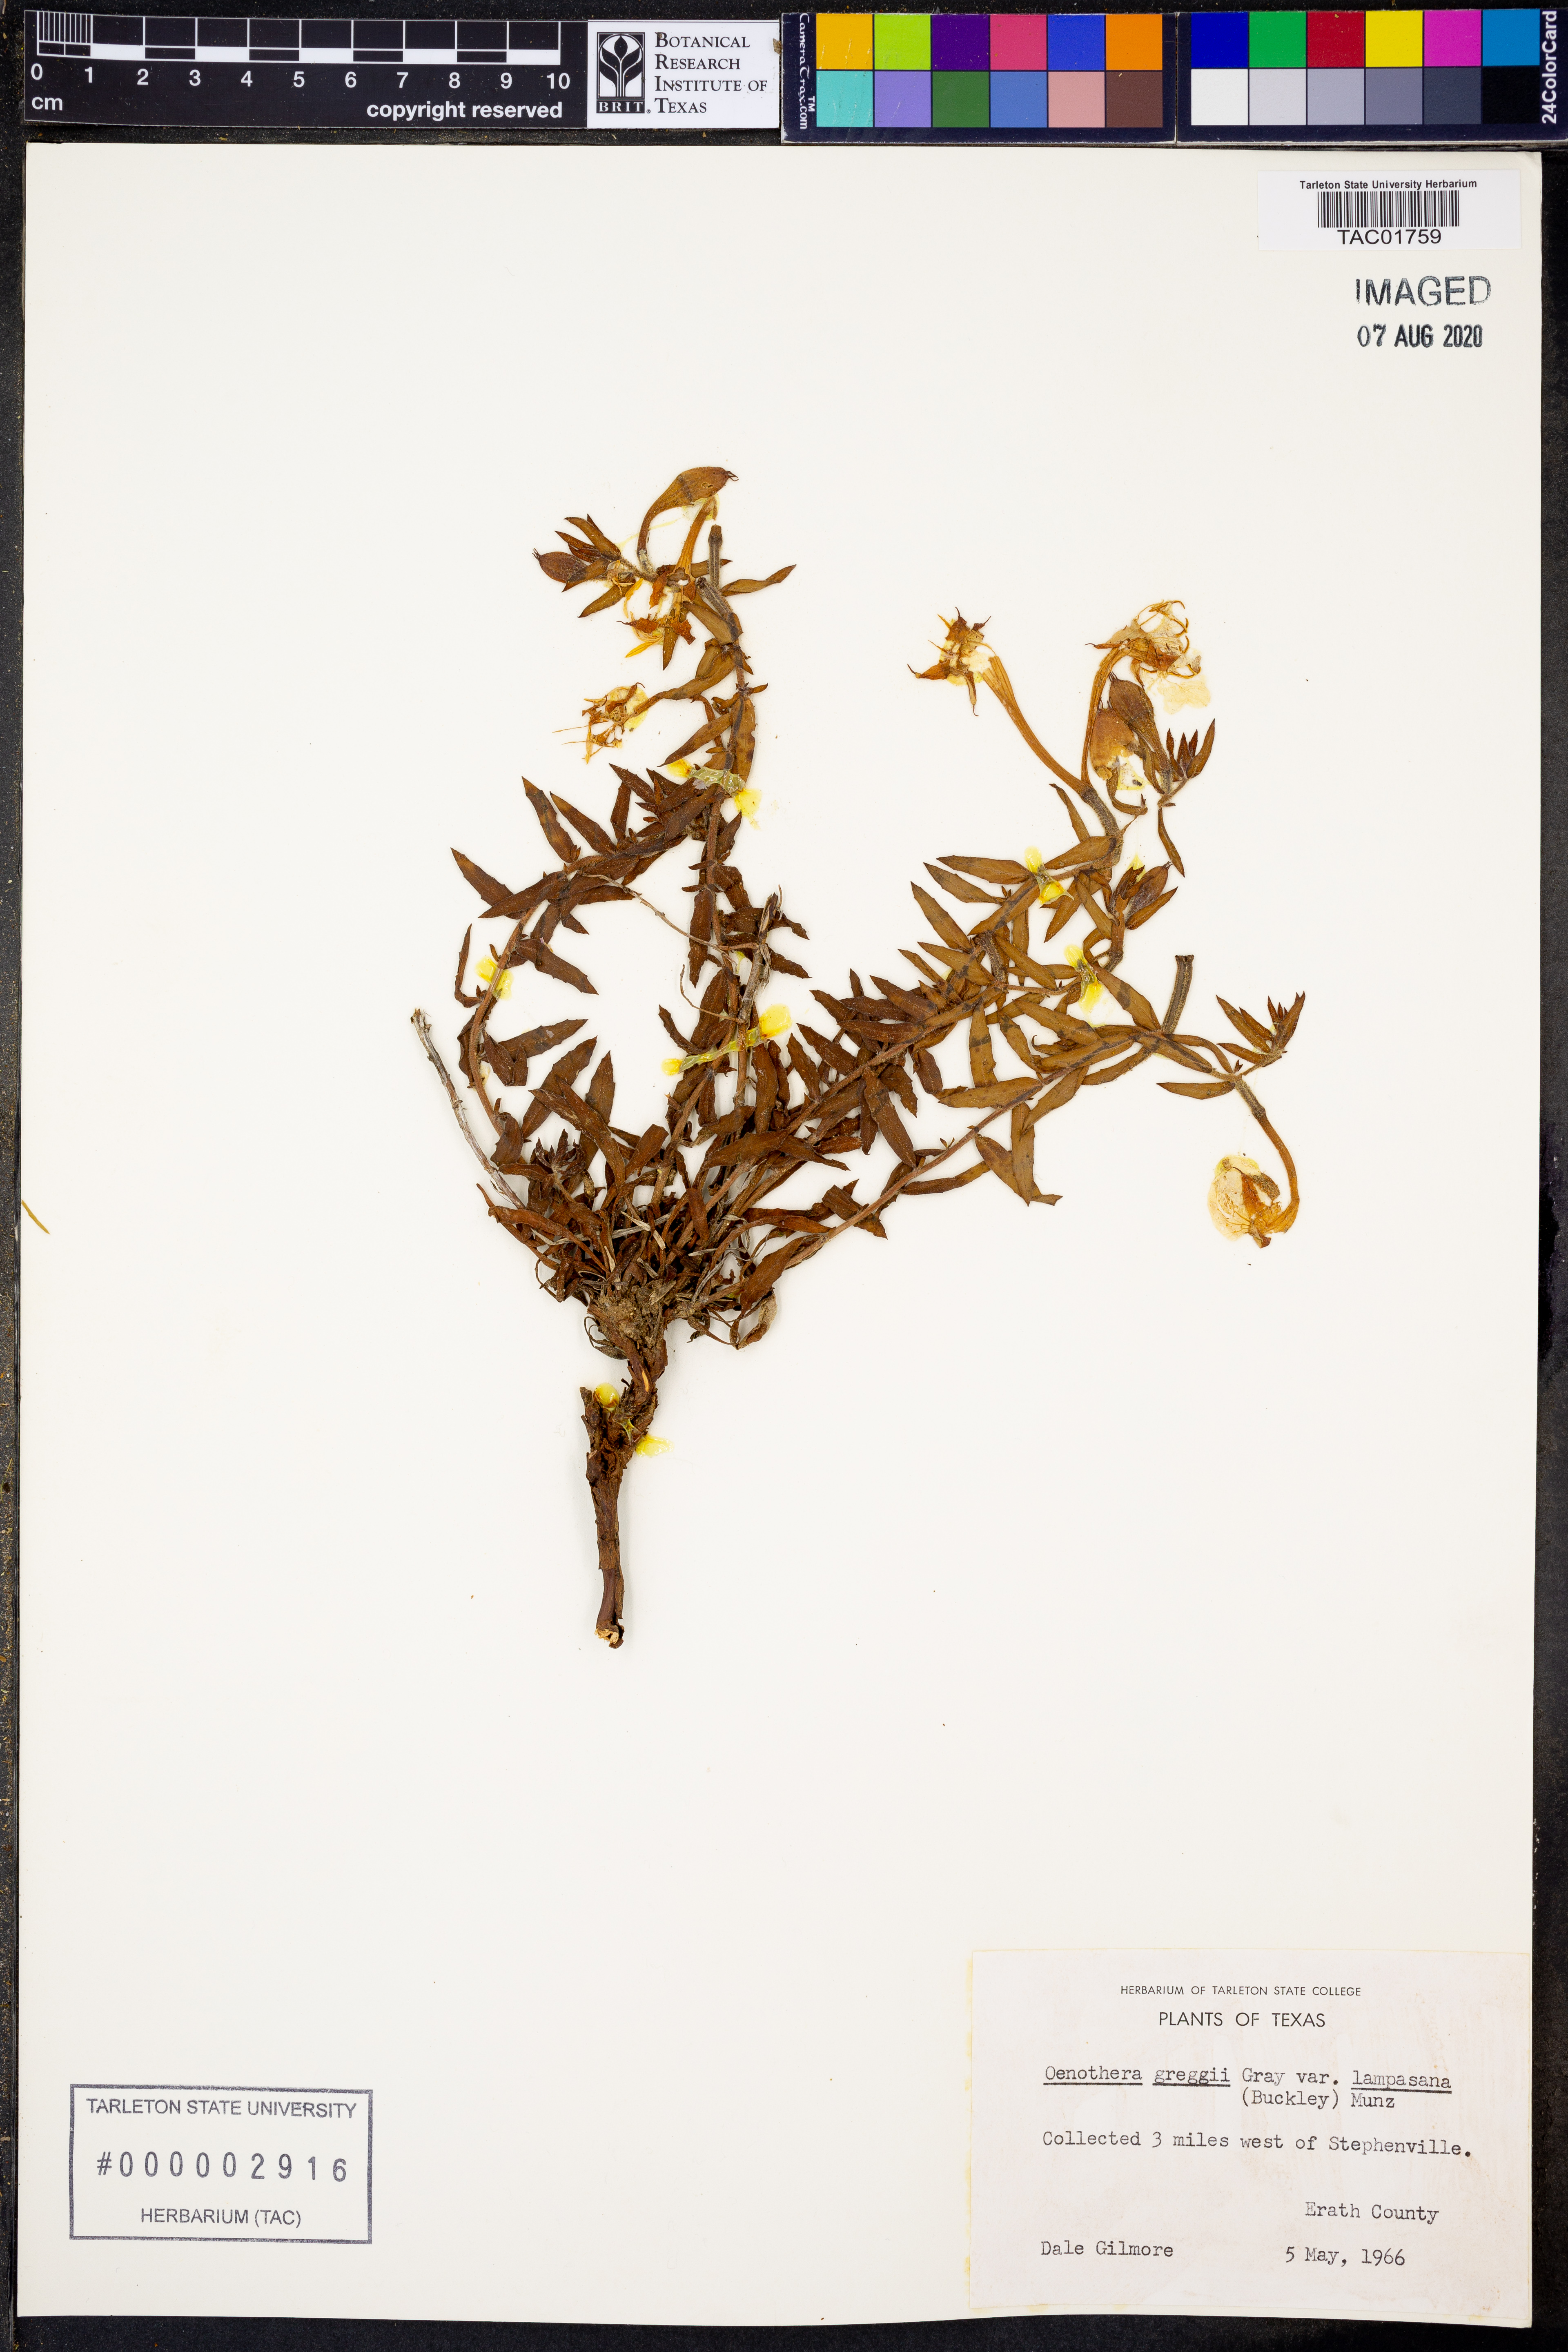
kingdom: Plantae
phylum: Tracheophyta
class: Magnoliopsida
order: Myrtales
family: Onagraceae
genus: Oenothera
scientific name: Oenothera hartwegii
